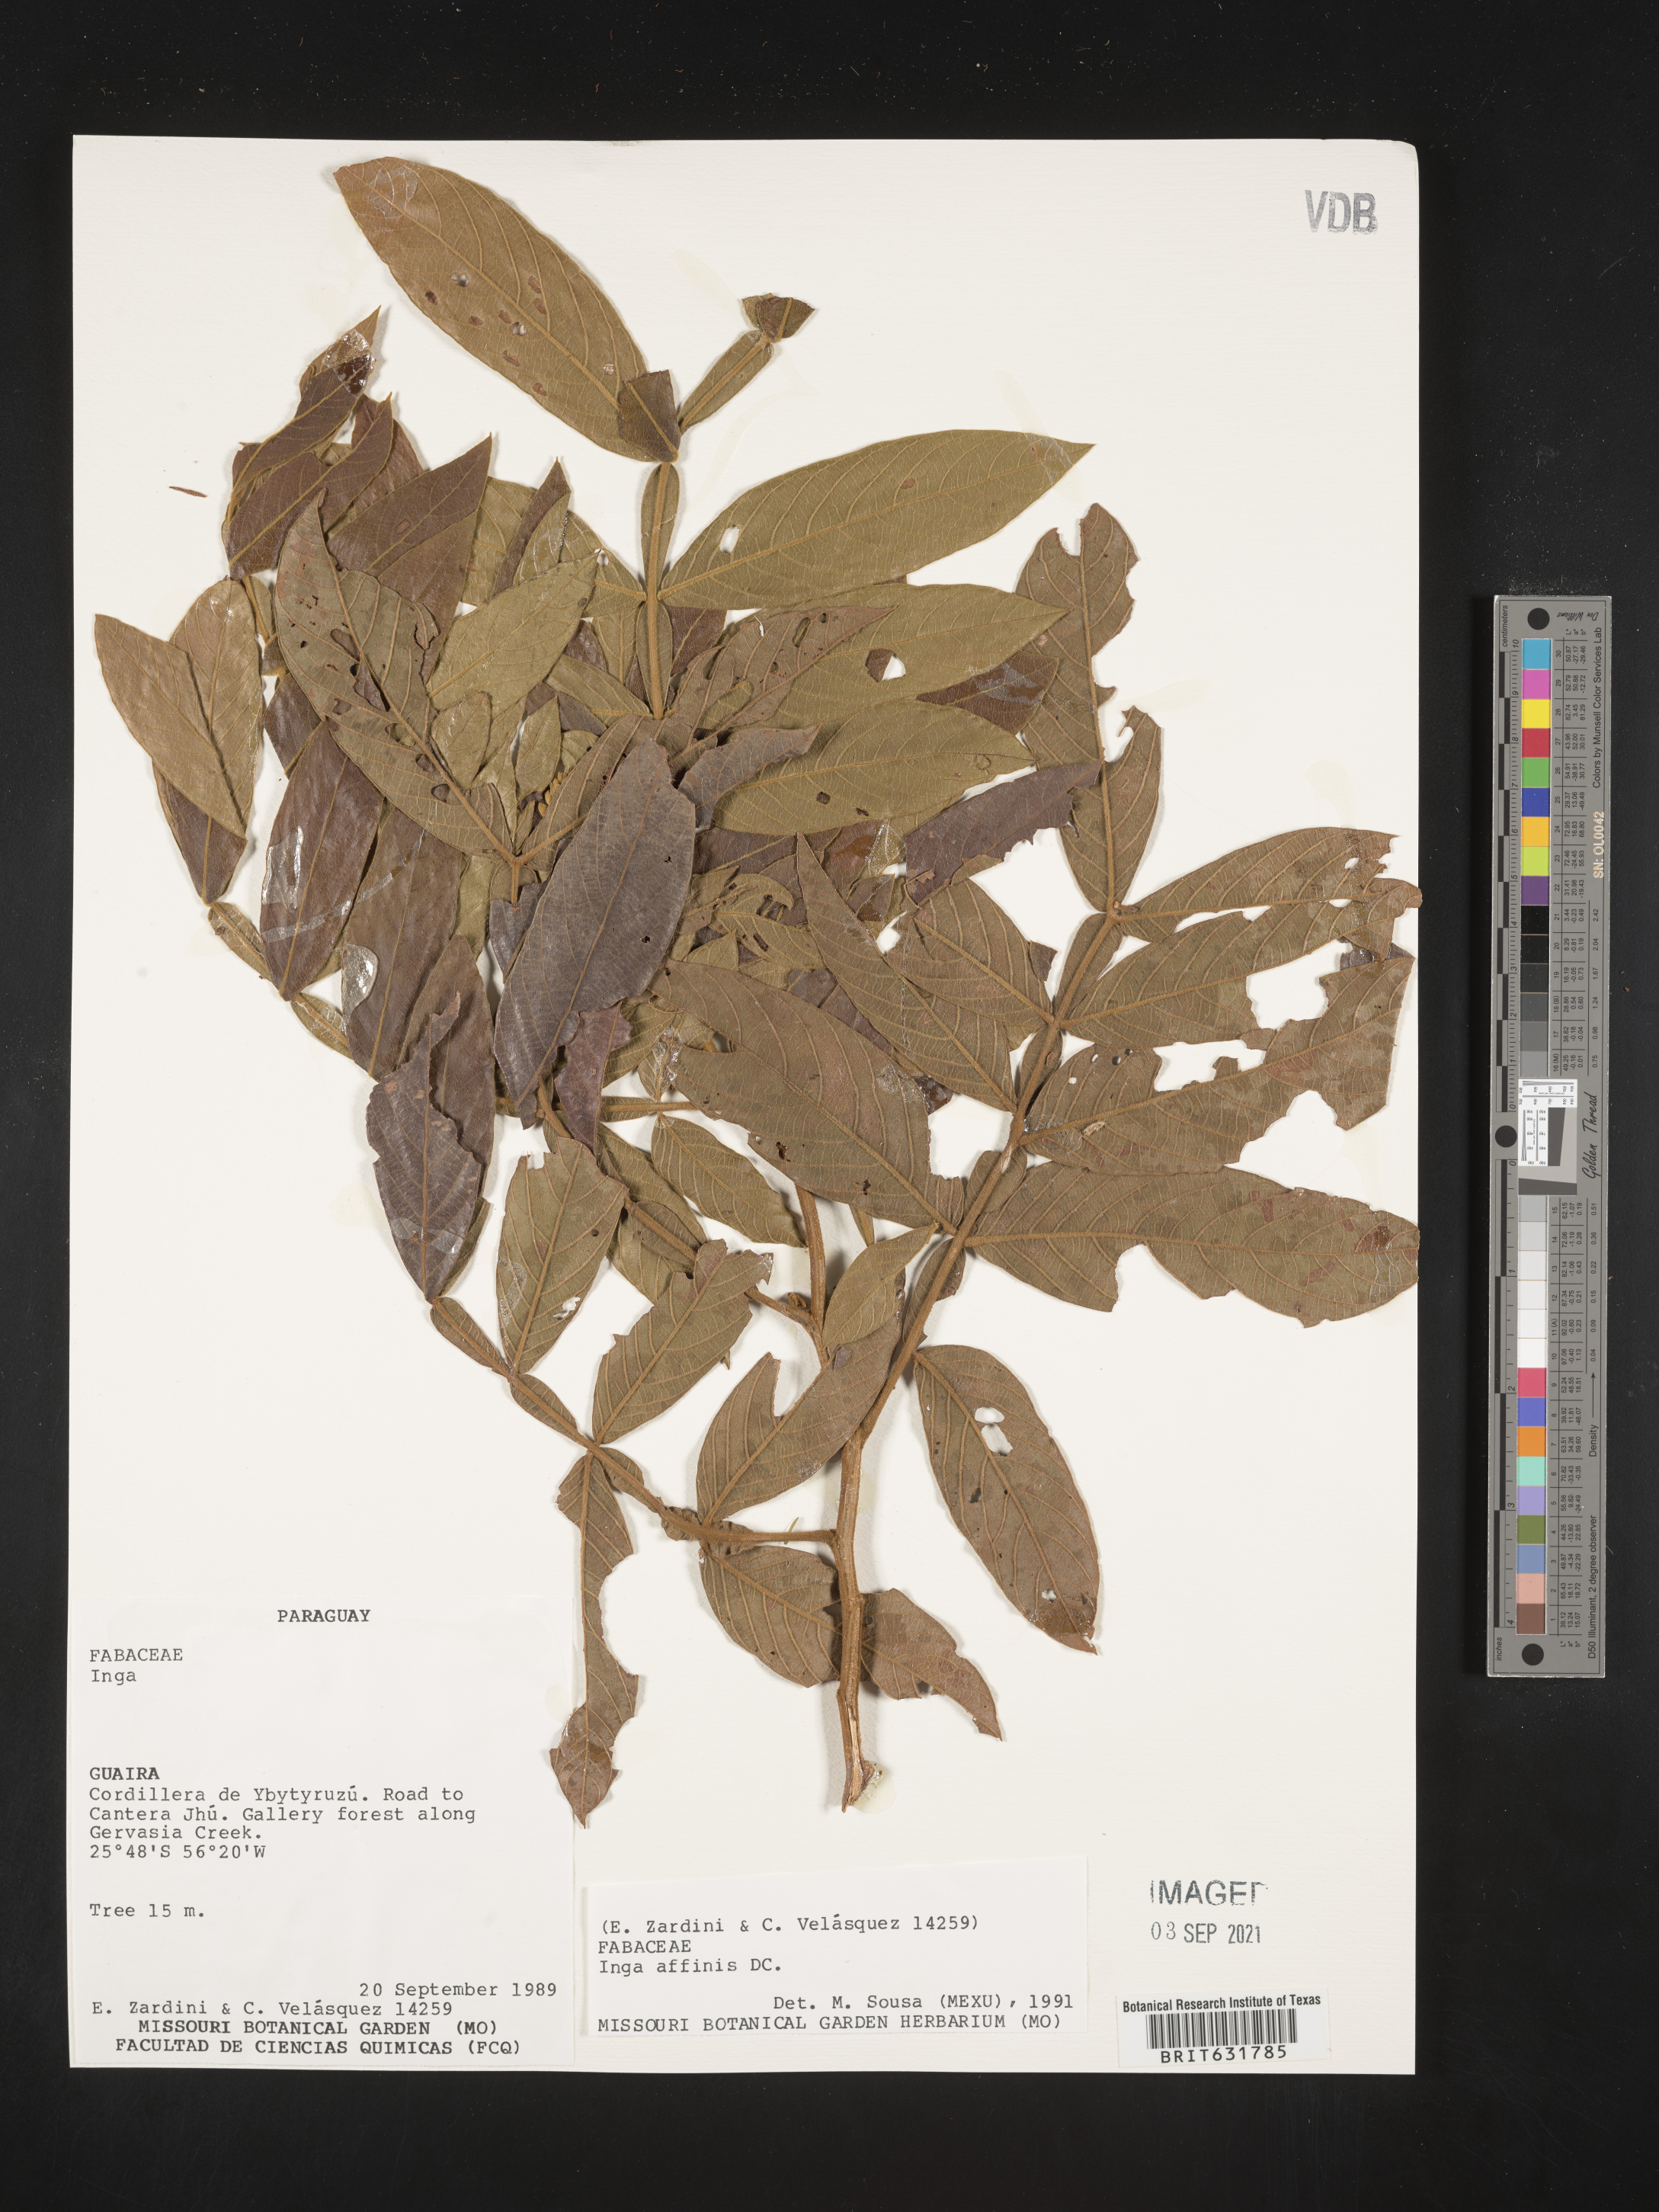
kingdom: Plantae
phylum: Tracheophyta
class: Magnoliopsida
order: Fabales
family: Fabaceae
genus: Inga
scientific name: Inga
